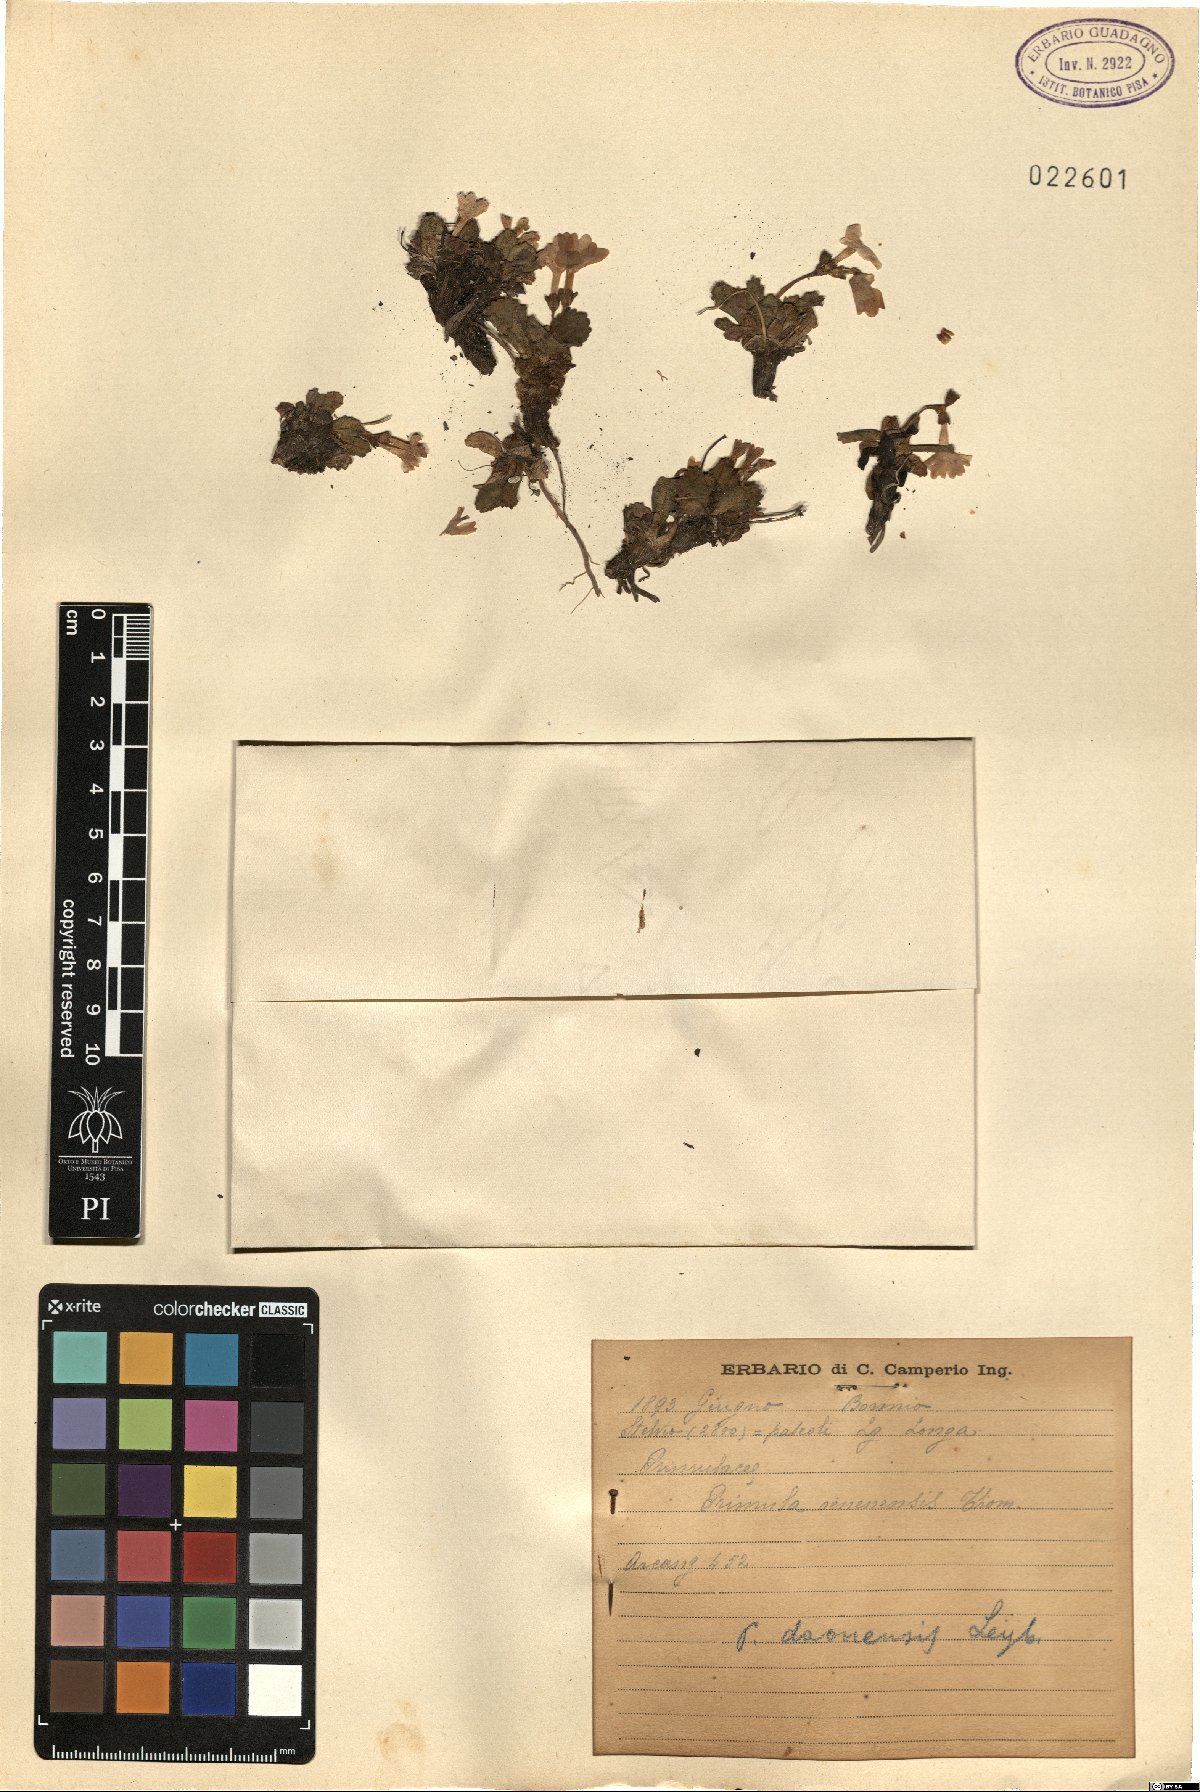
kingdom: Plantae
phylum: Tracheophyta
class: Magnoliopsida
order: Ericales
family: Primulaceae
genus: Primula
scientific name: Primula daonensis
